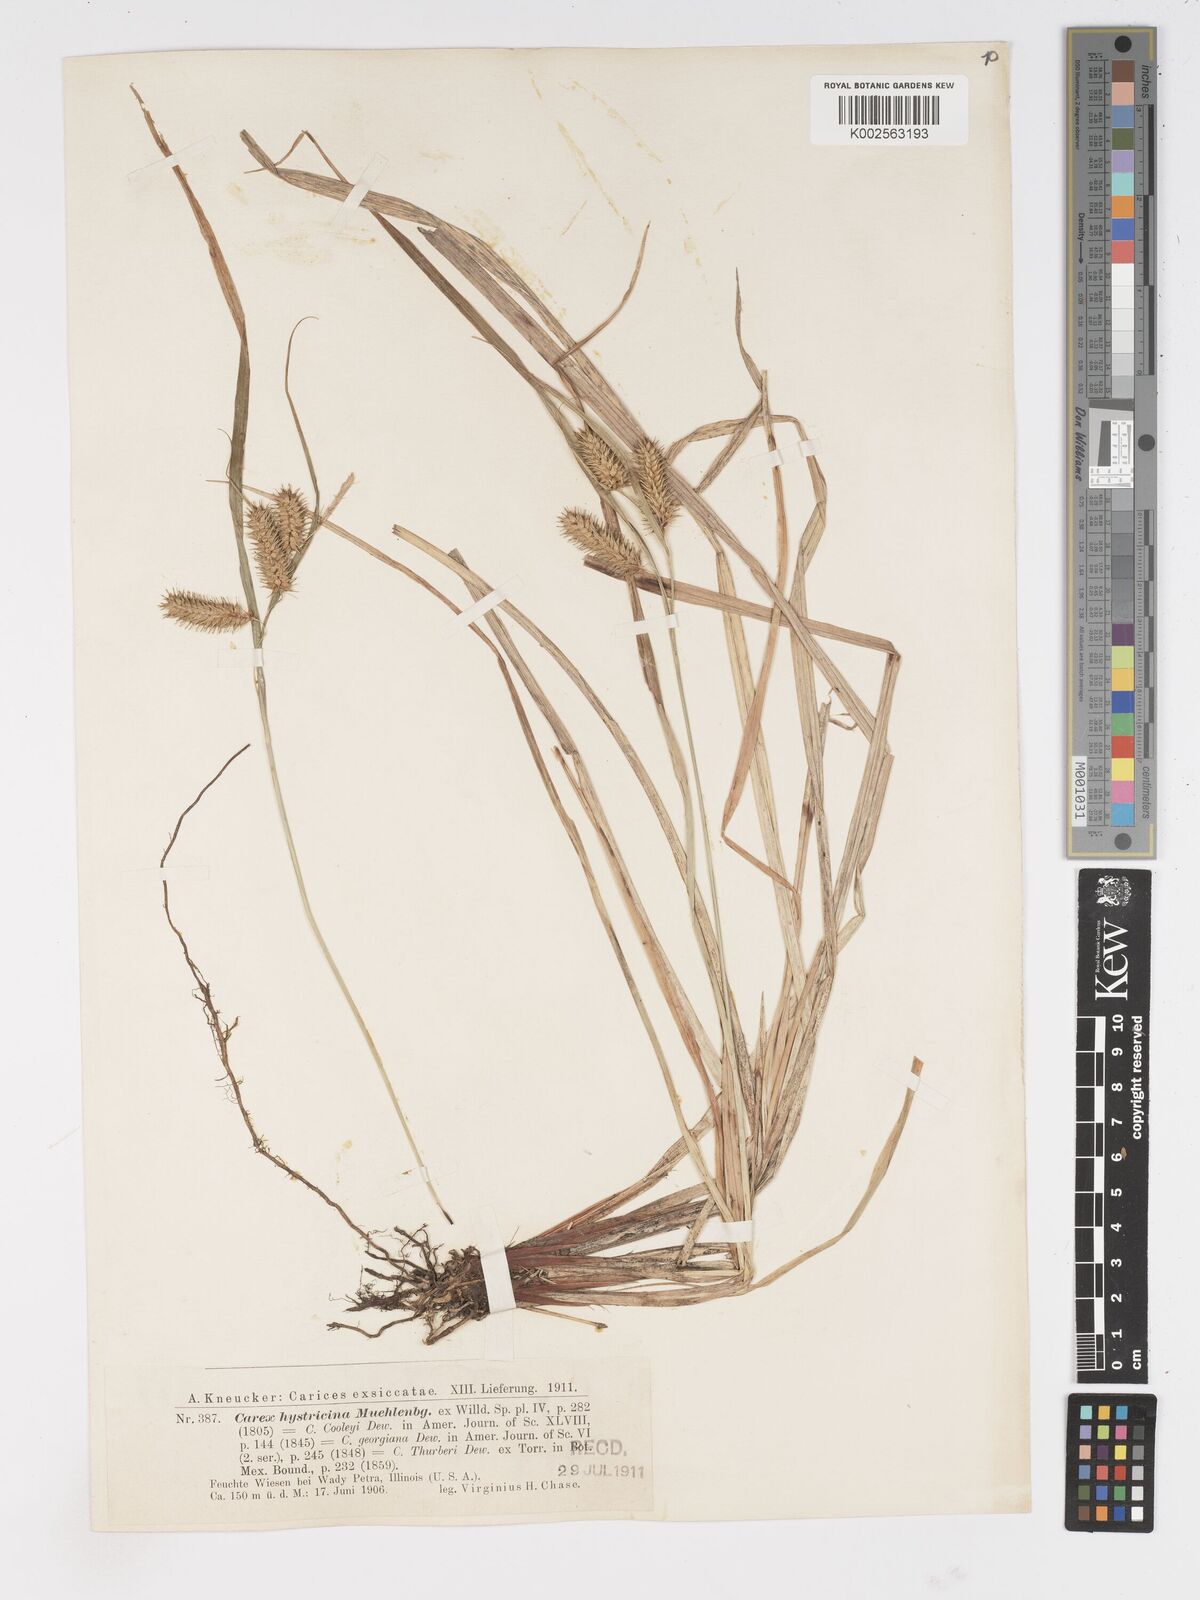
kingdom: Plantae
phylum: Tracheophyta
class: Liliopsida
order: Poales
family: Cyperaceae
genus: Carex
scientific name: Carex hystericina
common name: Bottlebrush sedge
